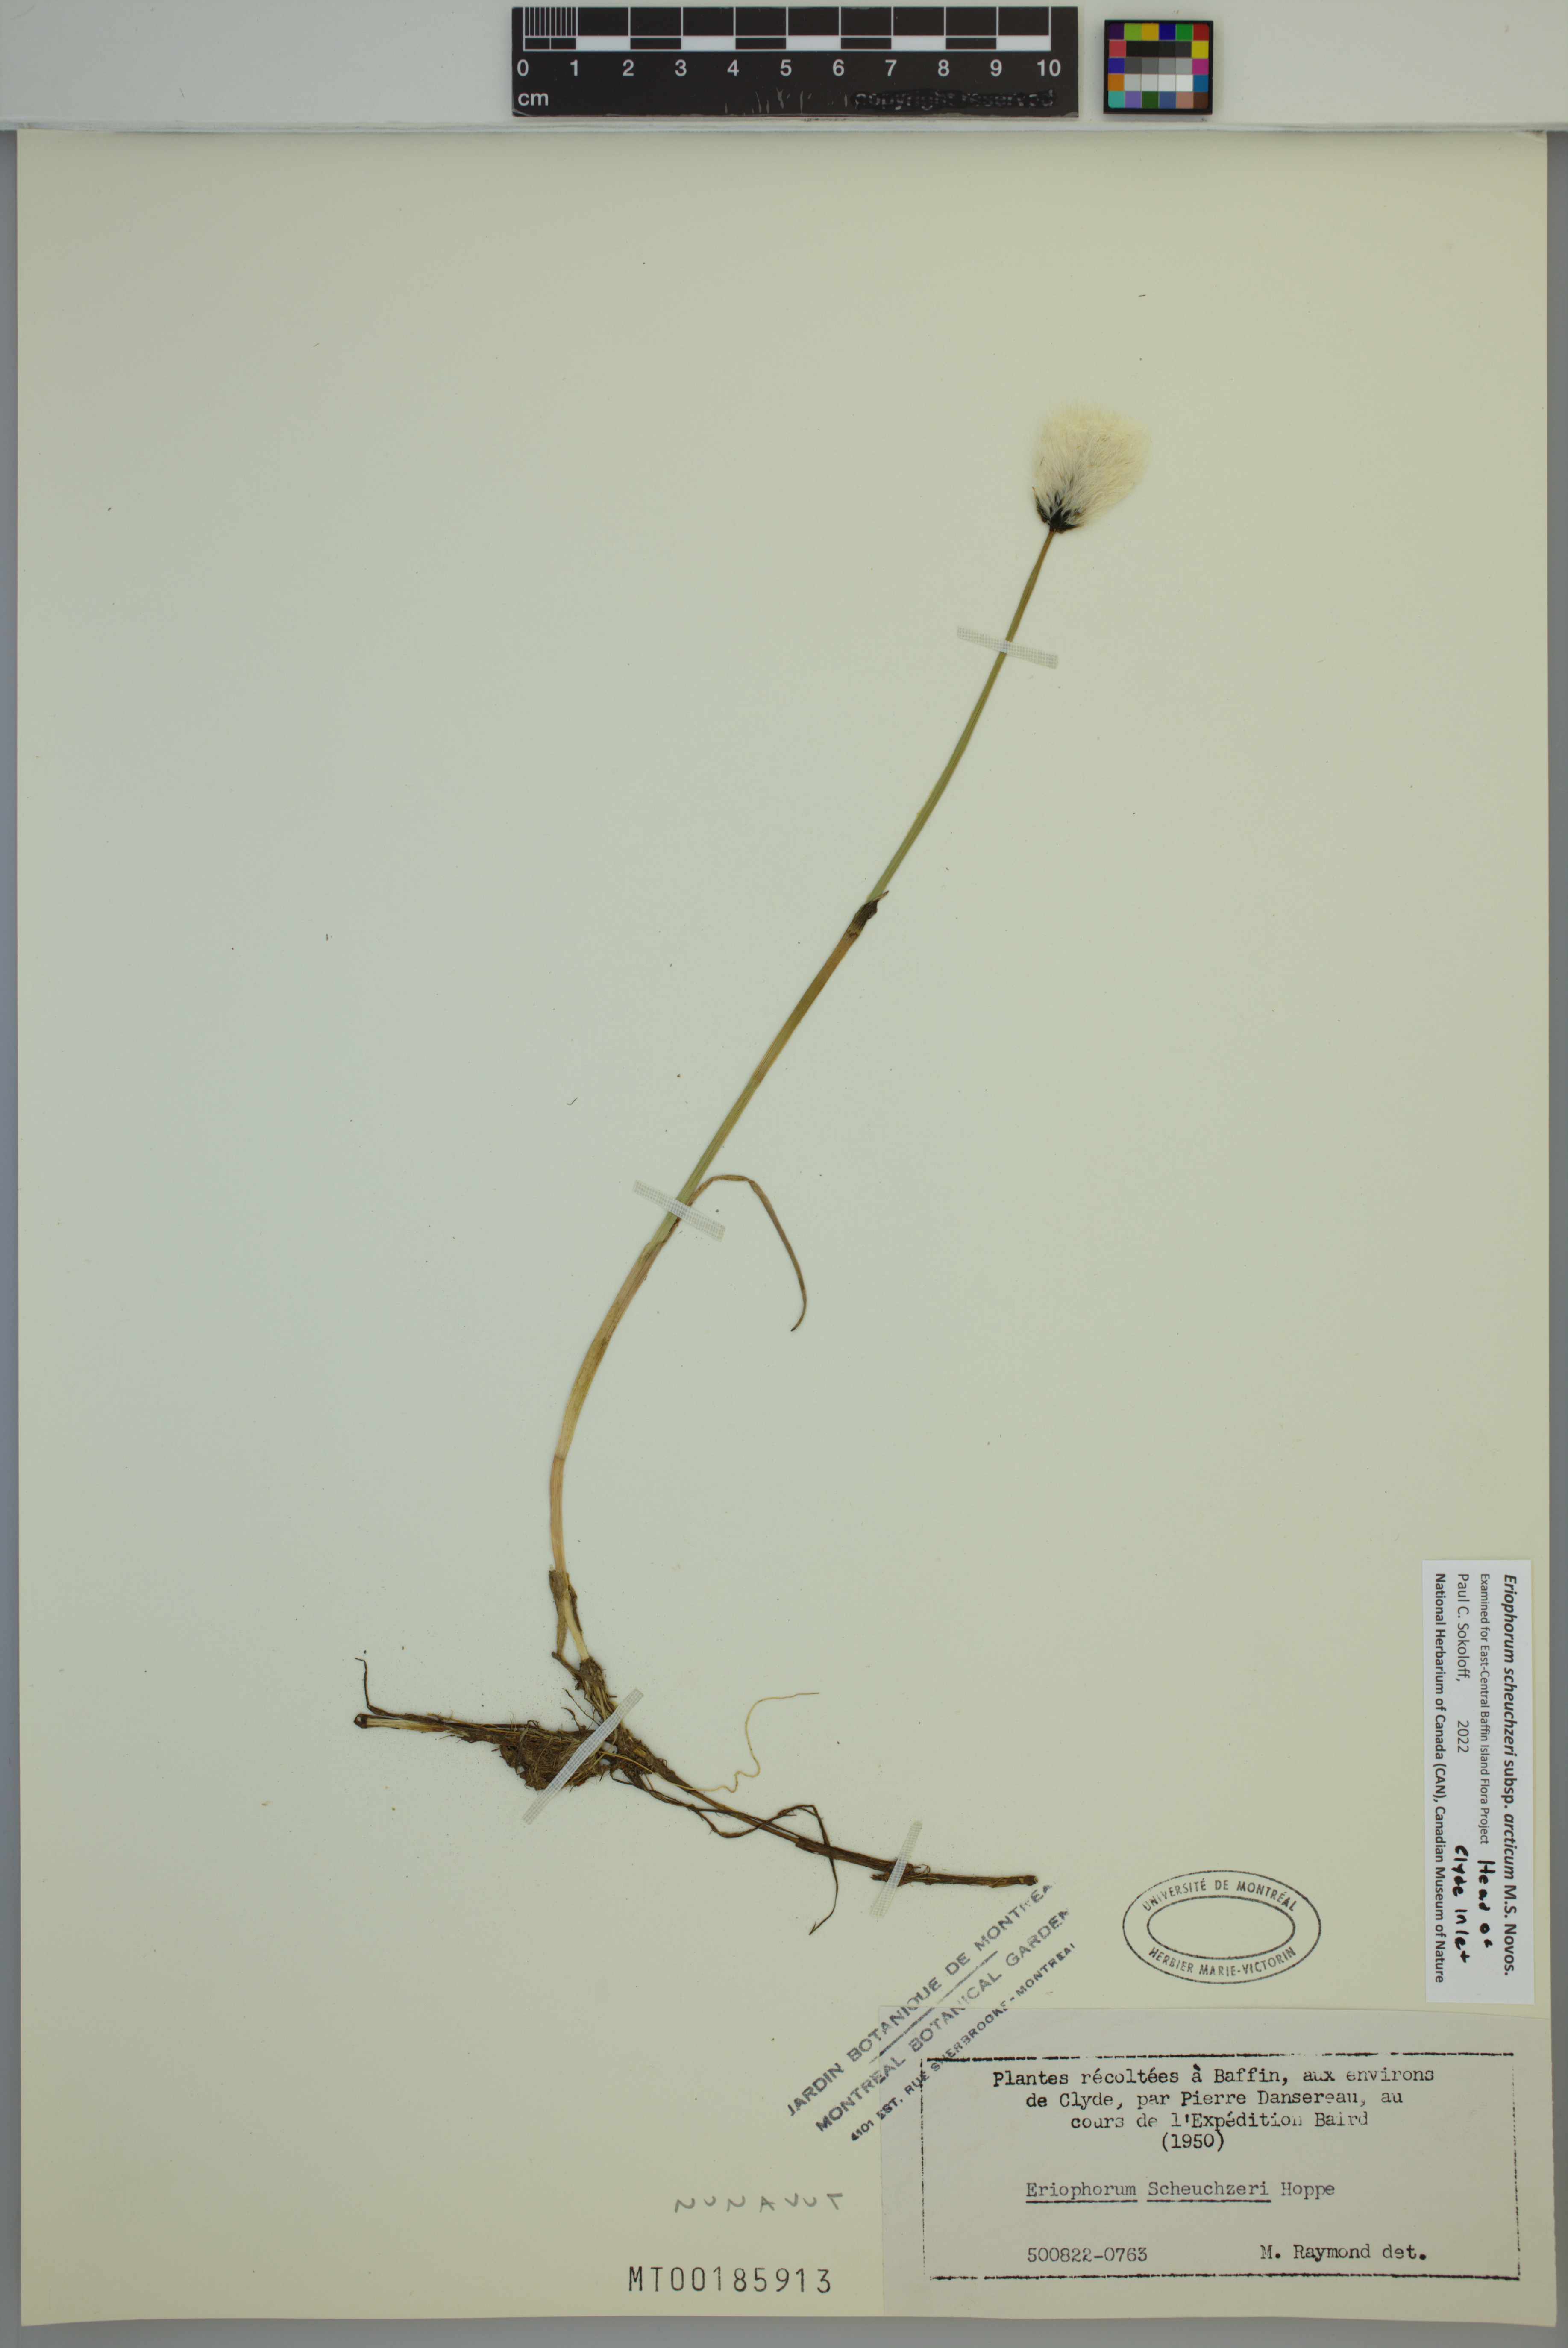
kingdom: Plantae
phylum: Tracheophyta
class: Liliopsida
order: Poales
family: Cyperaceae
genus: Eriophorum
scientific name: Eriophorum scheuchzeri
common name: Scheuchzer's cottongrass
